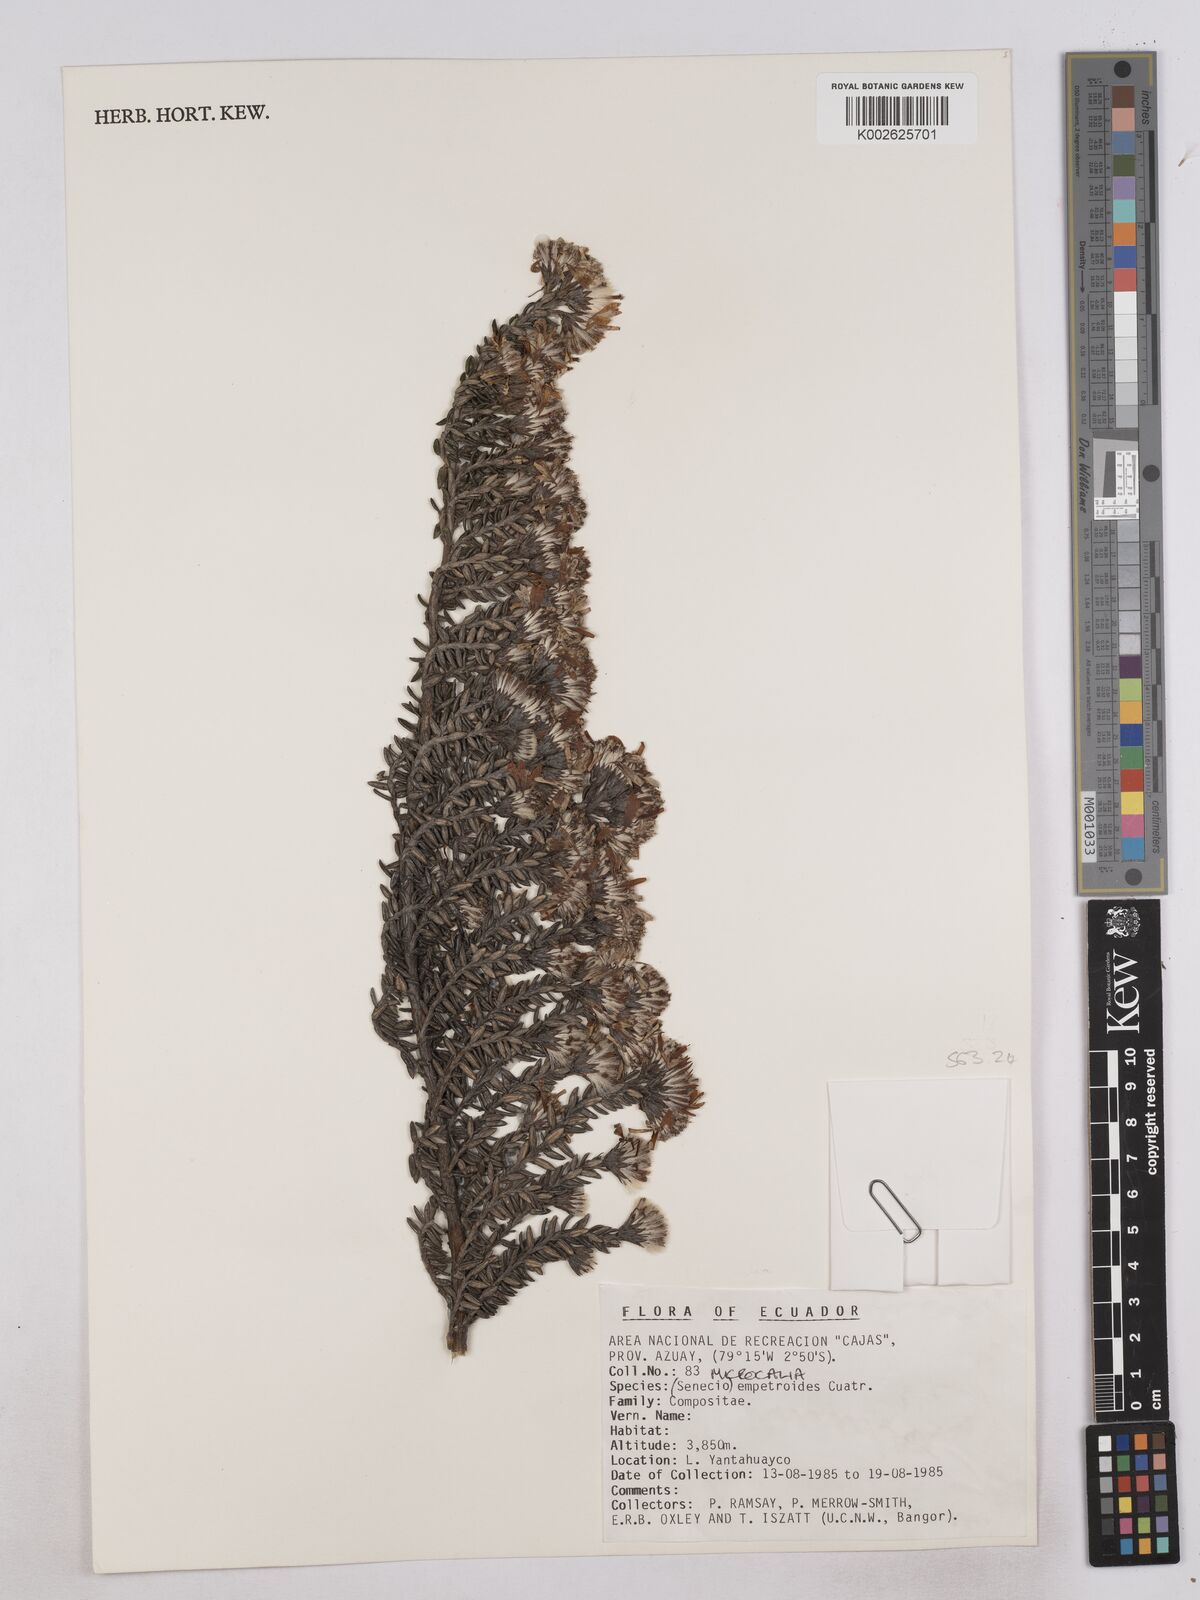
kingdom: Plantae
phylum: Tracheophyta
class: Magnoliopsida
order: Asterales
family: Asteraceae
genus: Monticalia
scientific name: Monticalia empetroides
